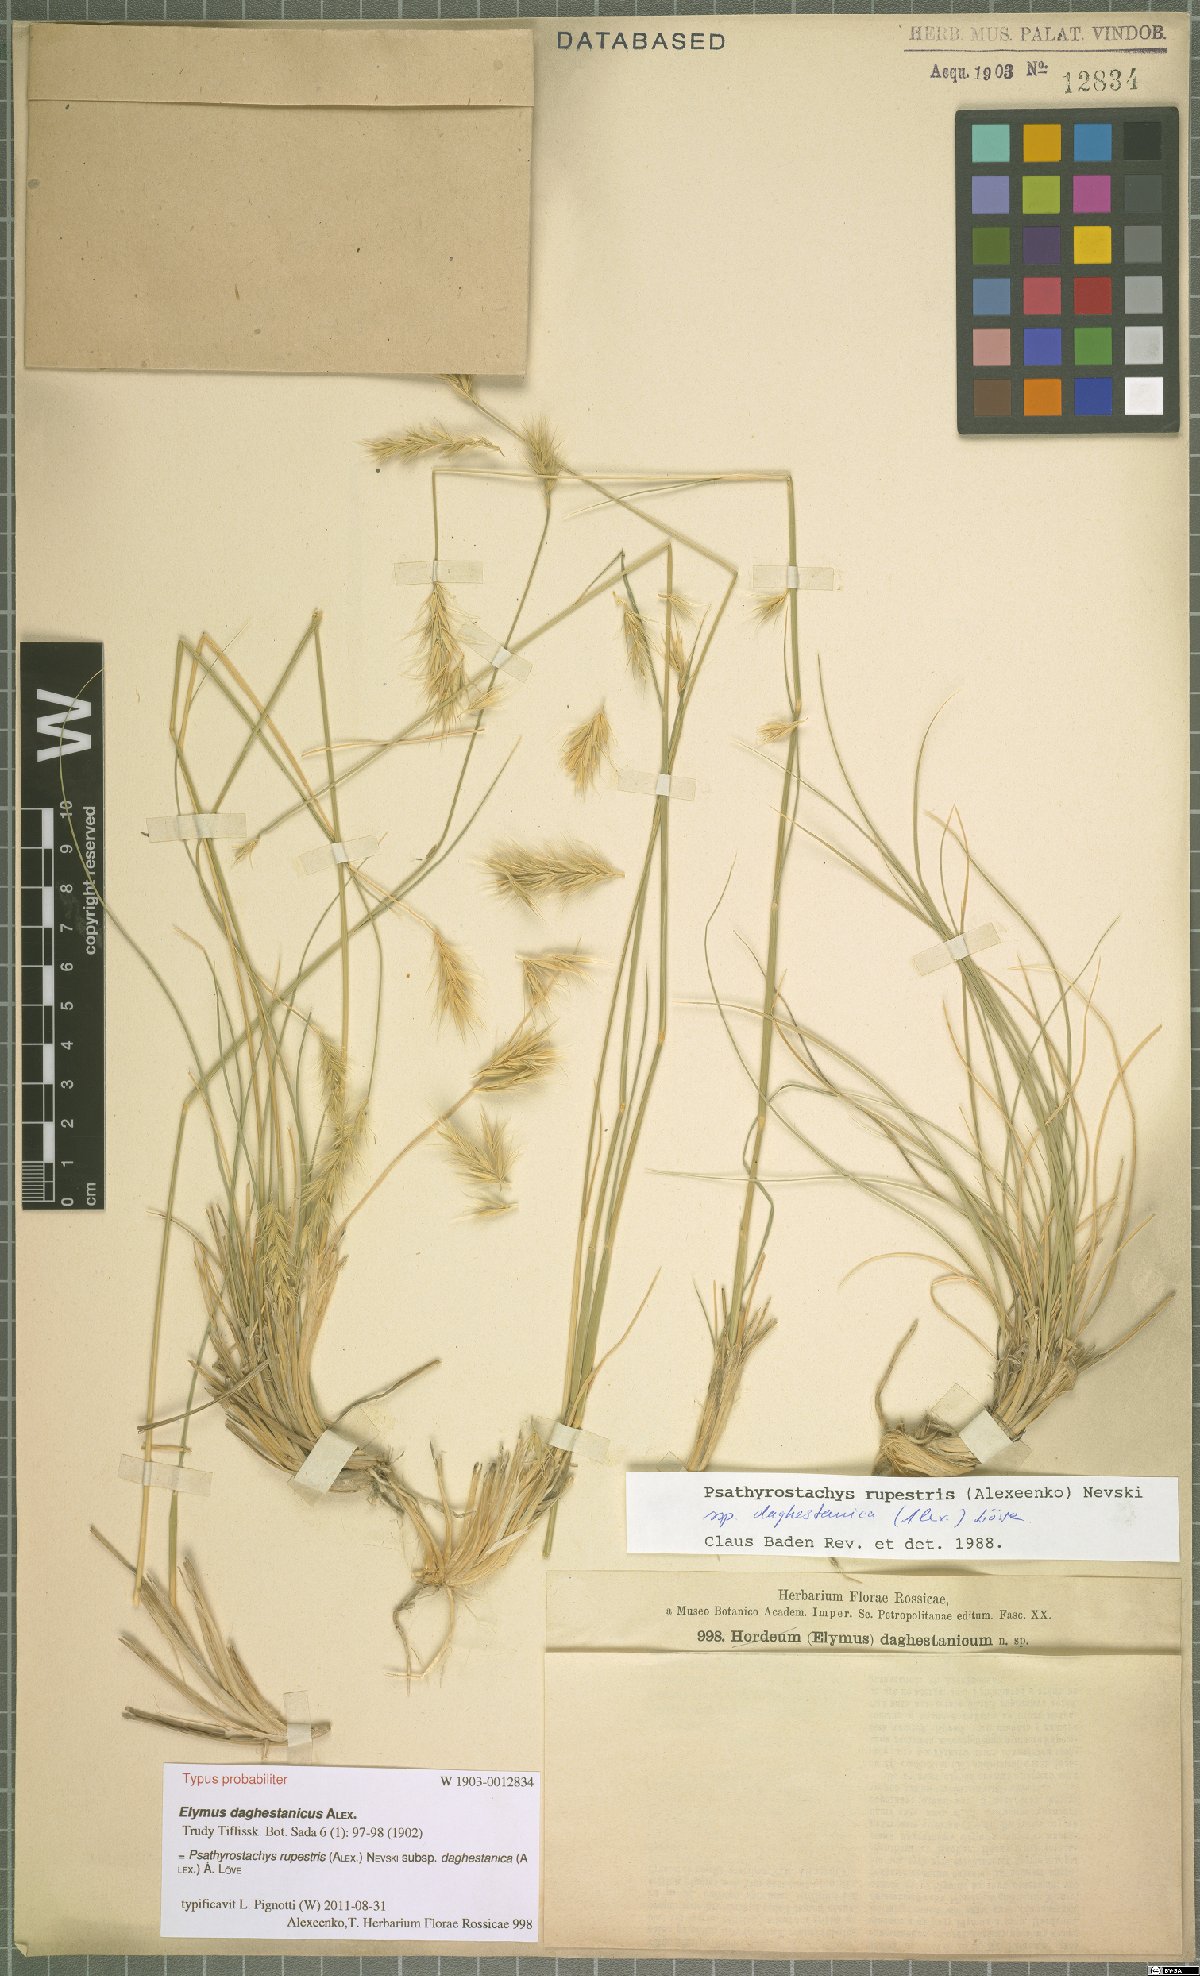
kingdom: Plantae
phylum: Tracheophyta
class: Liliopsida
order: Poales
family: Poaceae
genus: Psathyrostachys
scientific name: Psathyrostachys daghestanica
